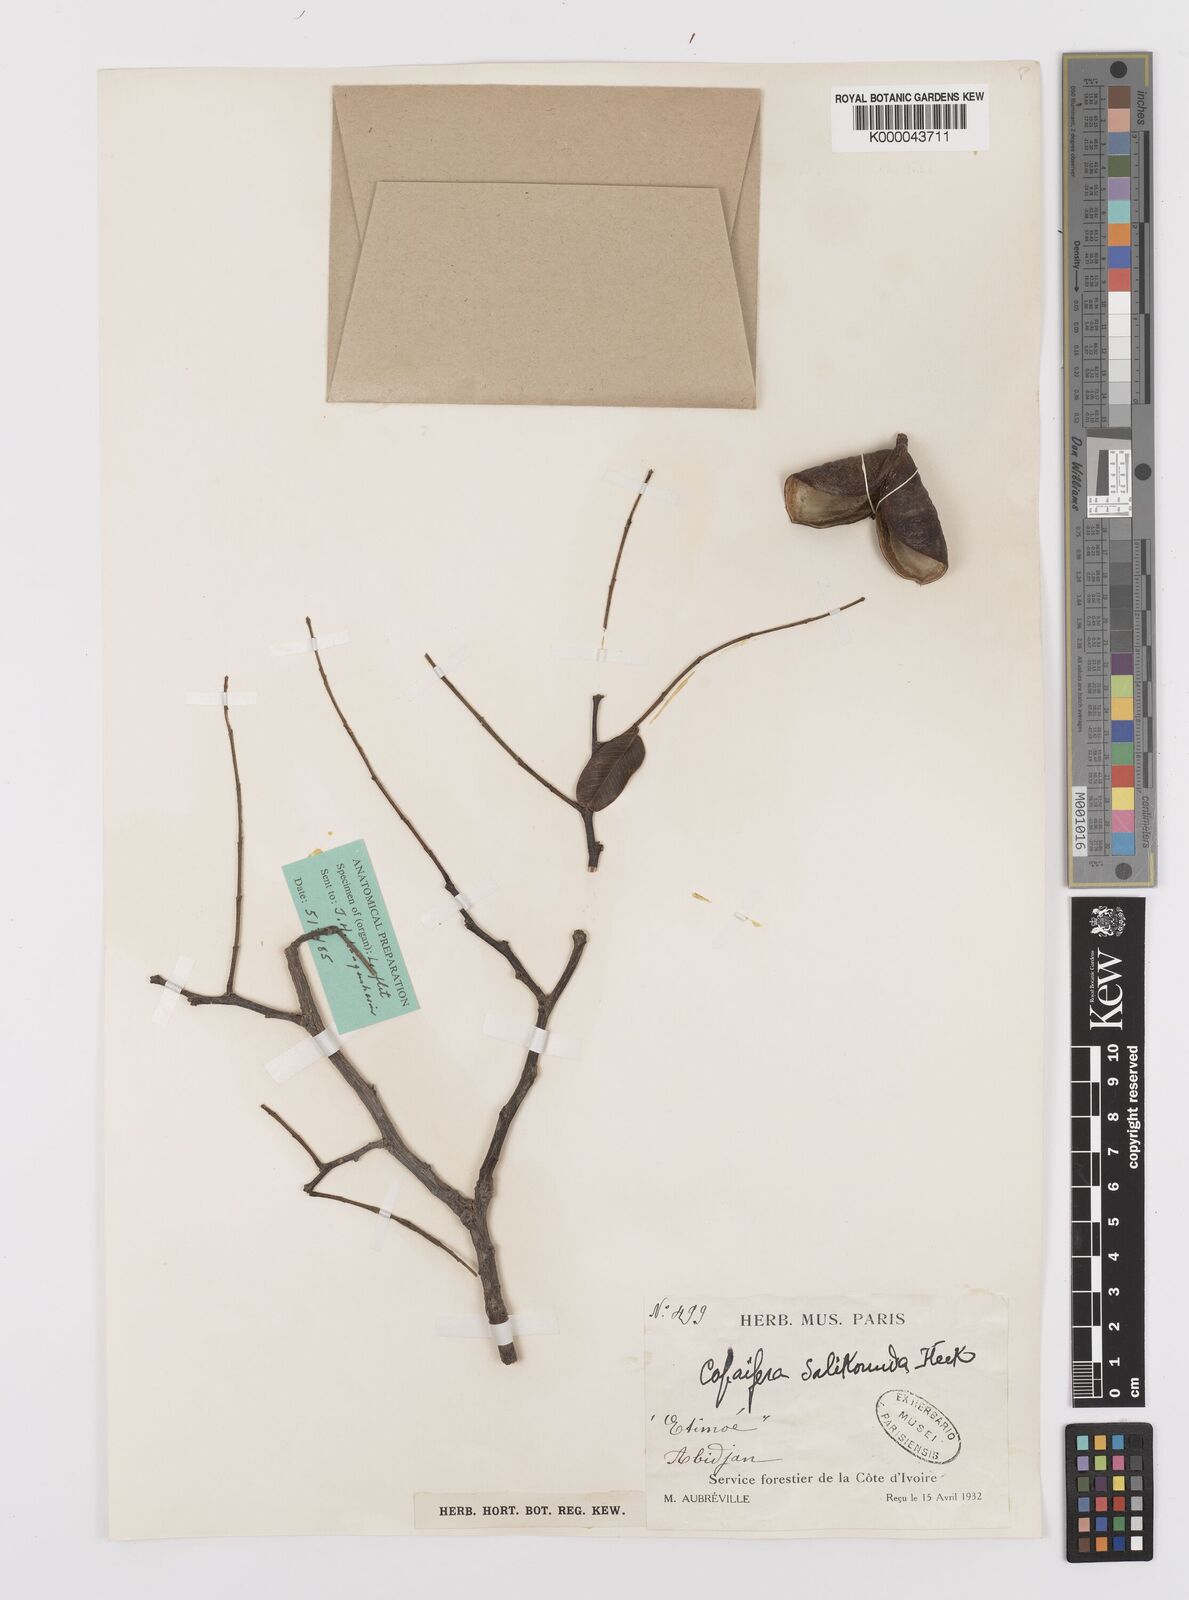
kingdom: Plantae
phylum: Tracheophyta
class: Magnoliopsida
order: Fabales
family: Fabaceae
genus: Copaifera
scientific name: Copaifera salikounda
